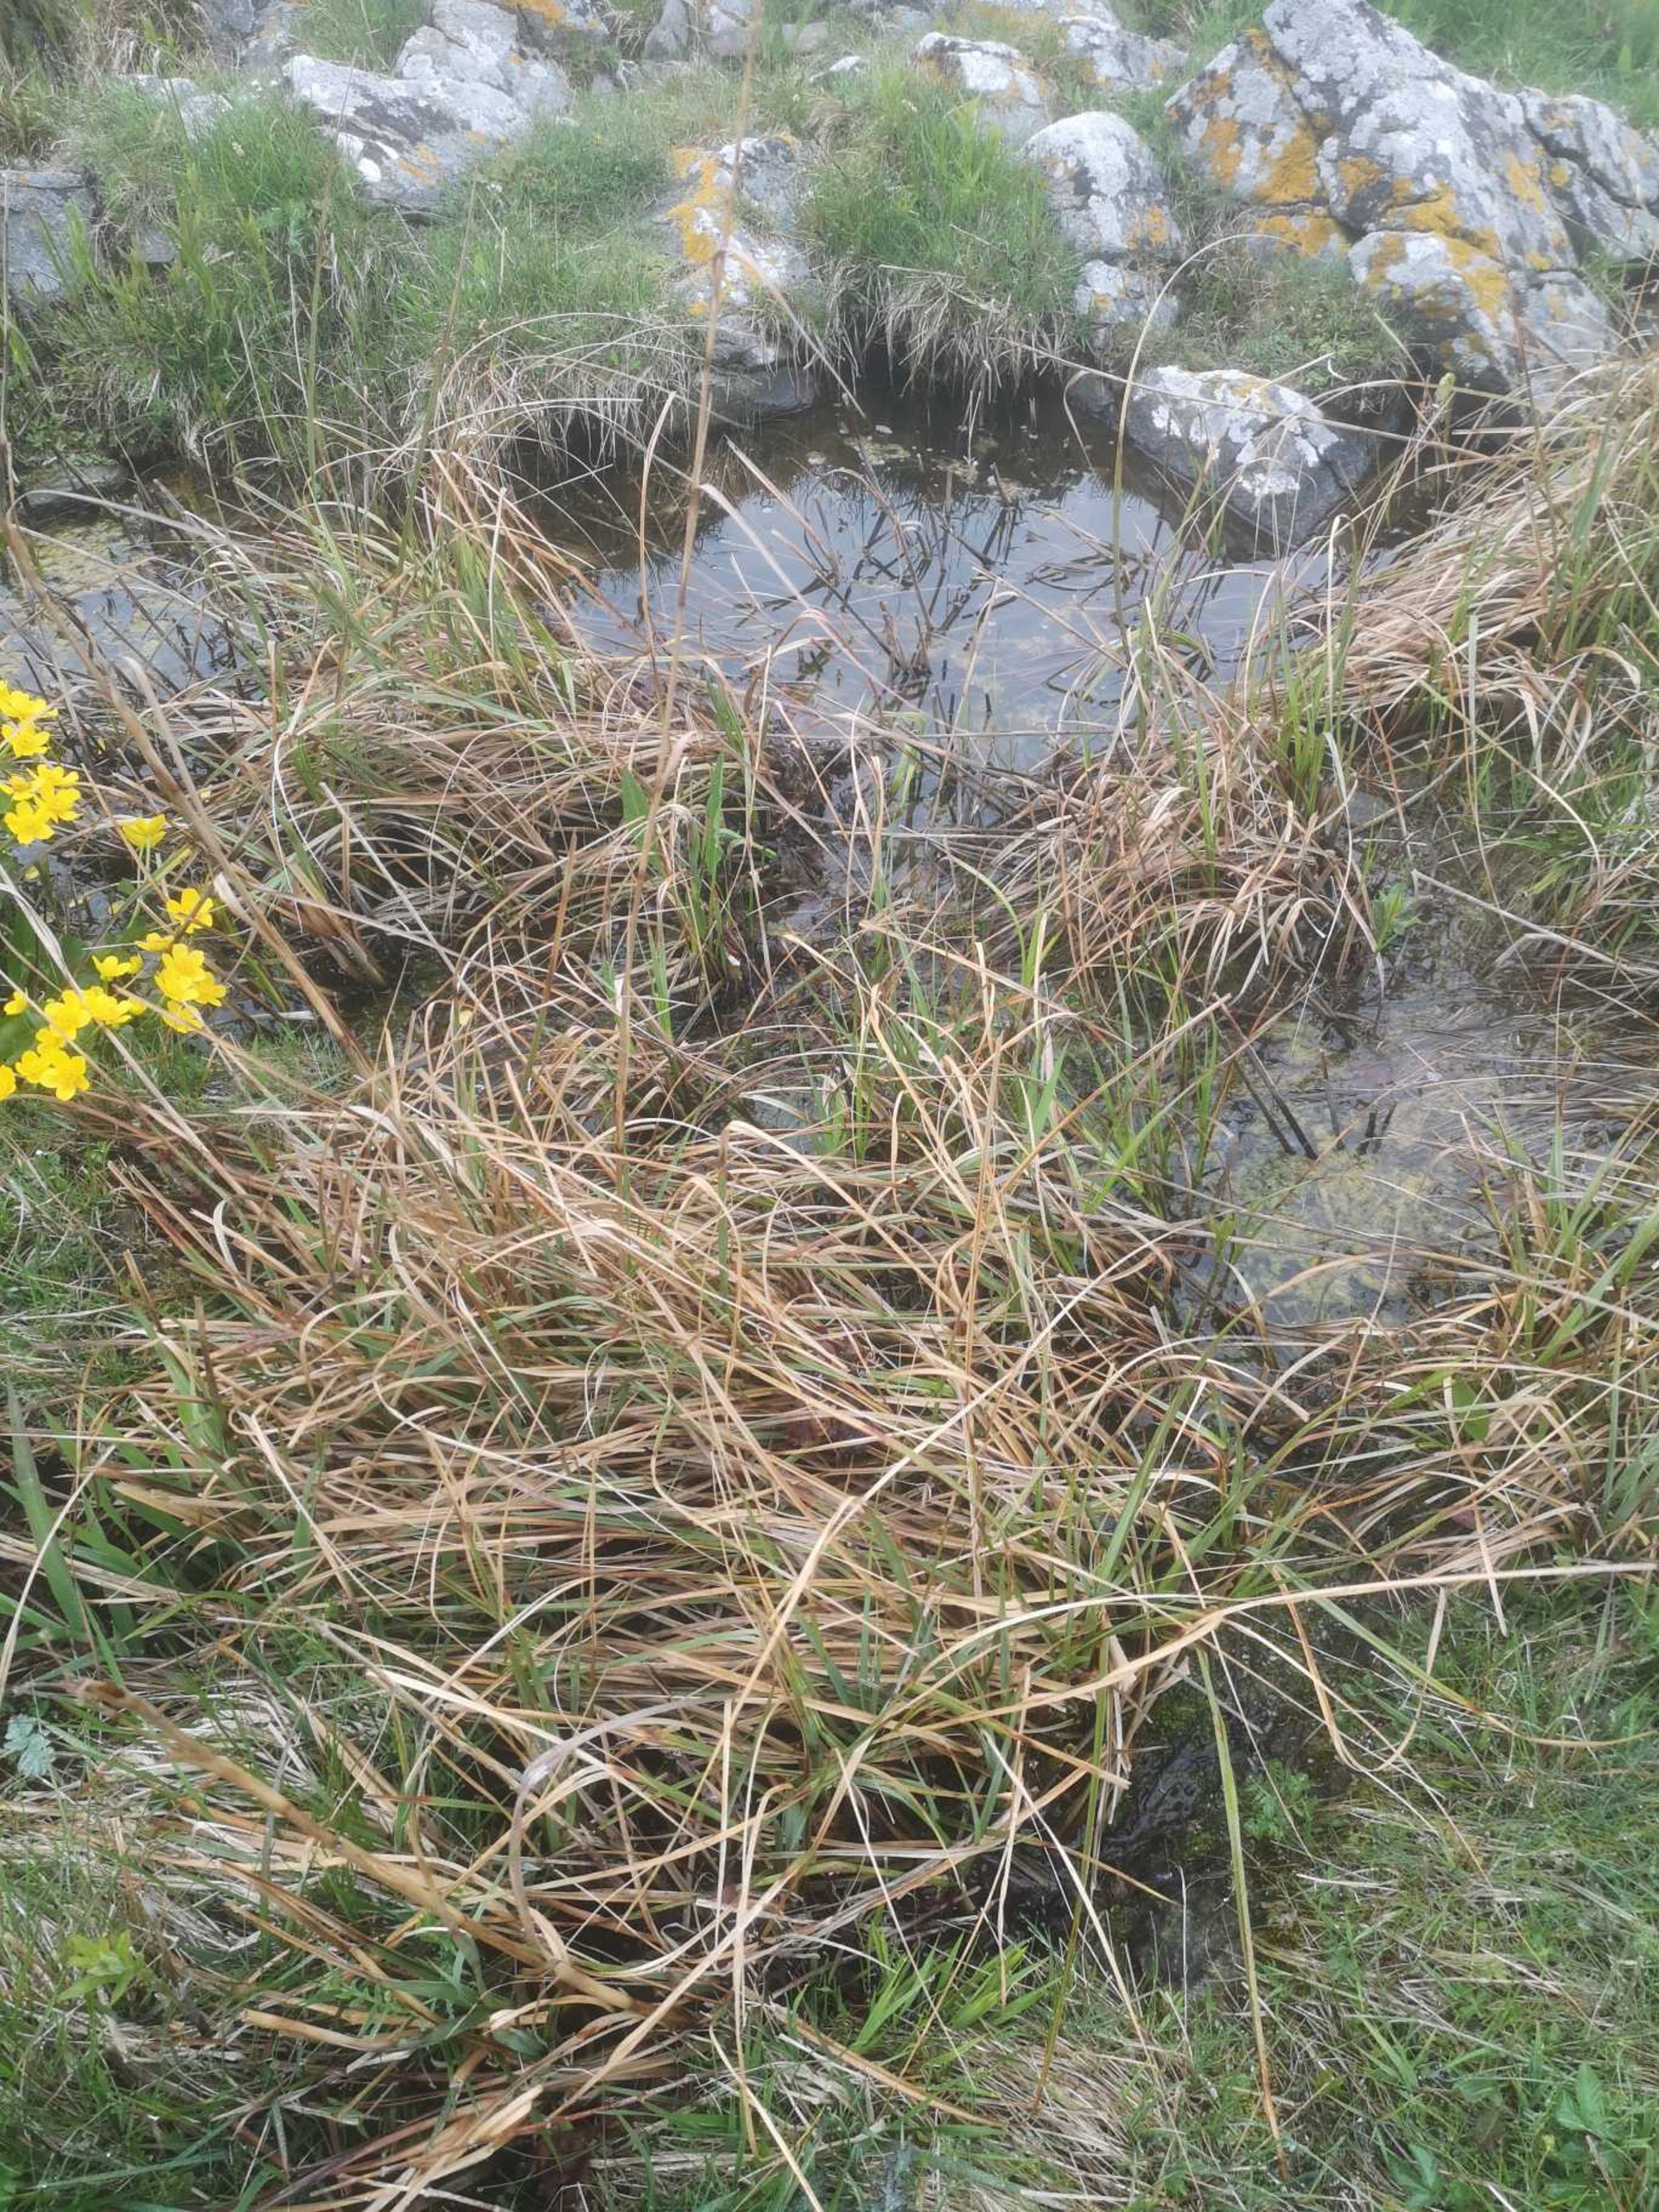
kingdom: Plantae
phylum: Tracheophyta
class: Liliopsida
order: Poales
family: Cyperaceae
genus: Cladium
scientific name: Cladium mariscus
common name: Hvas avneknippe
